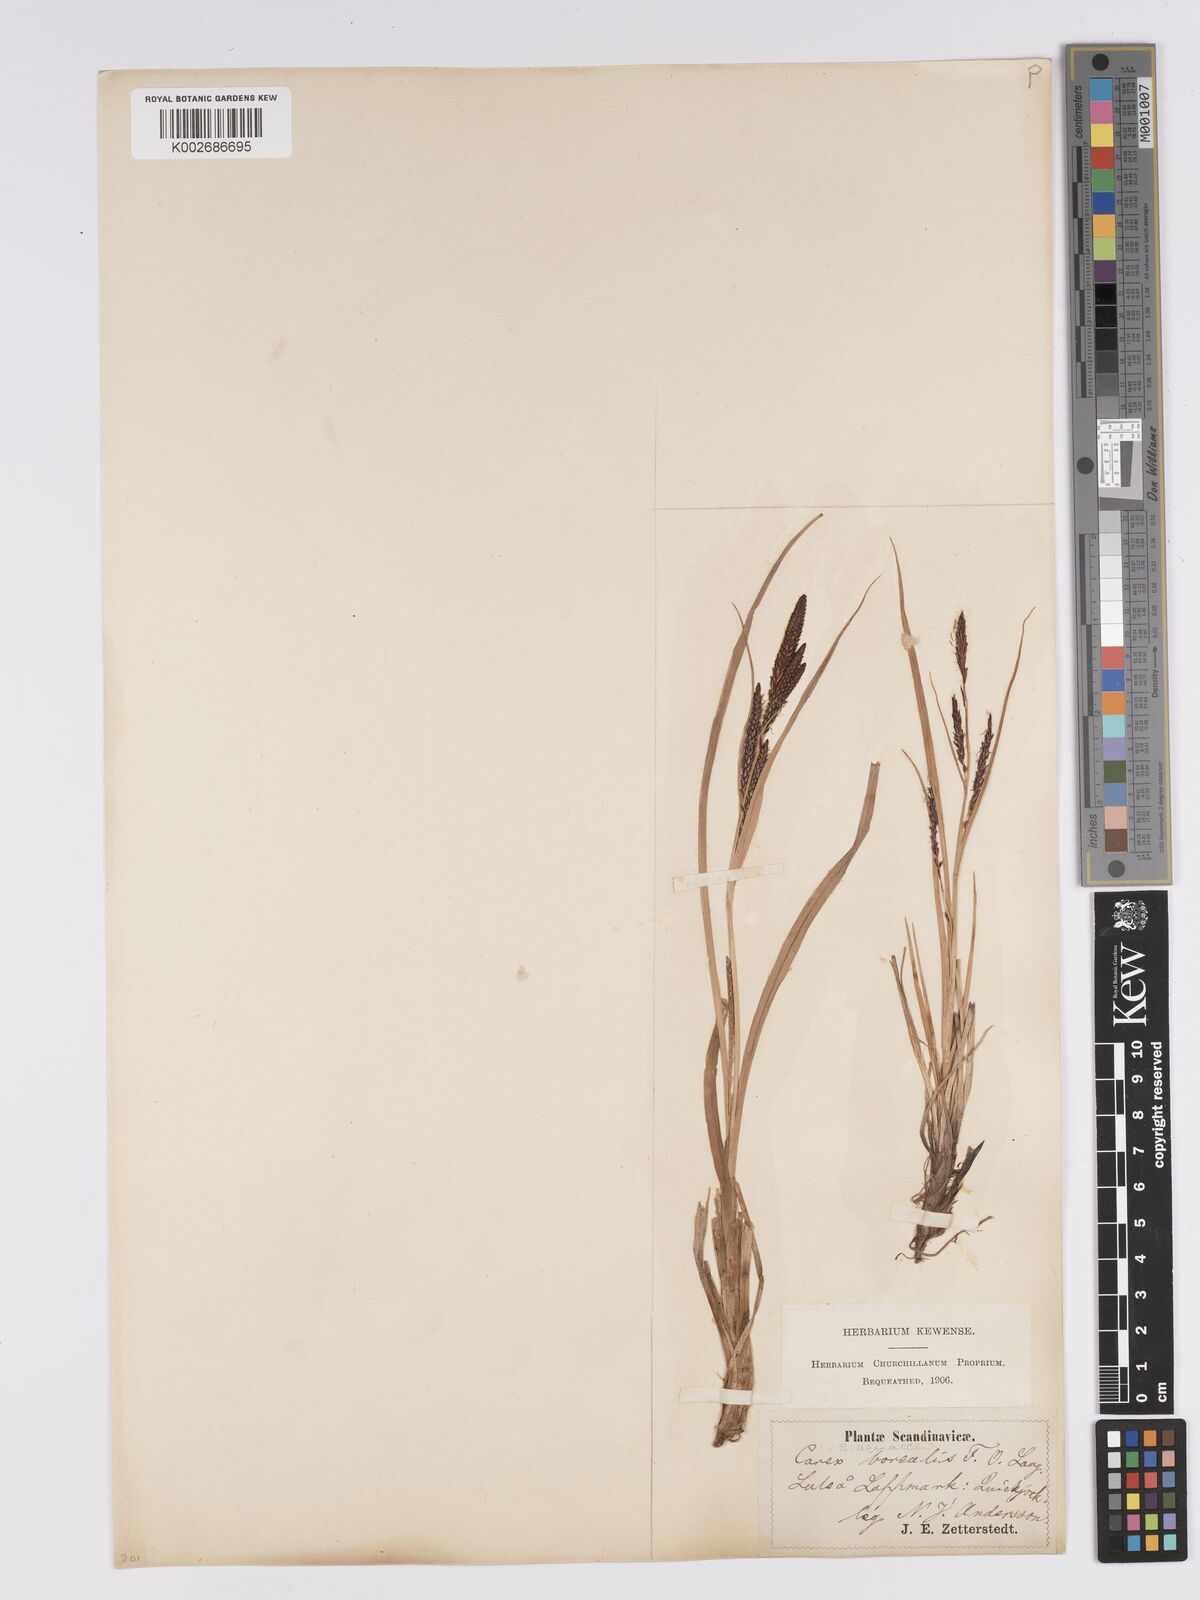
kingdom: Plantae
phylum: Tracheophyta
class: Liliopsida
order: Poales
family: Cyperaceae
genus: Carex
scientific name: Carex aquatilis
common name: Water sedge
